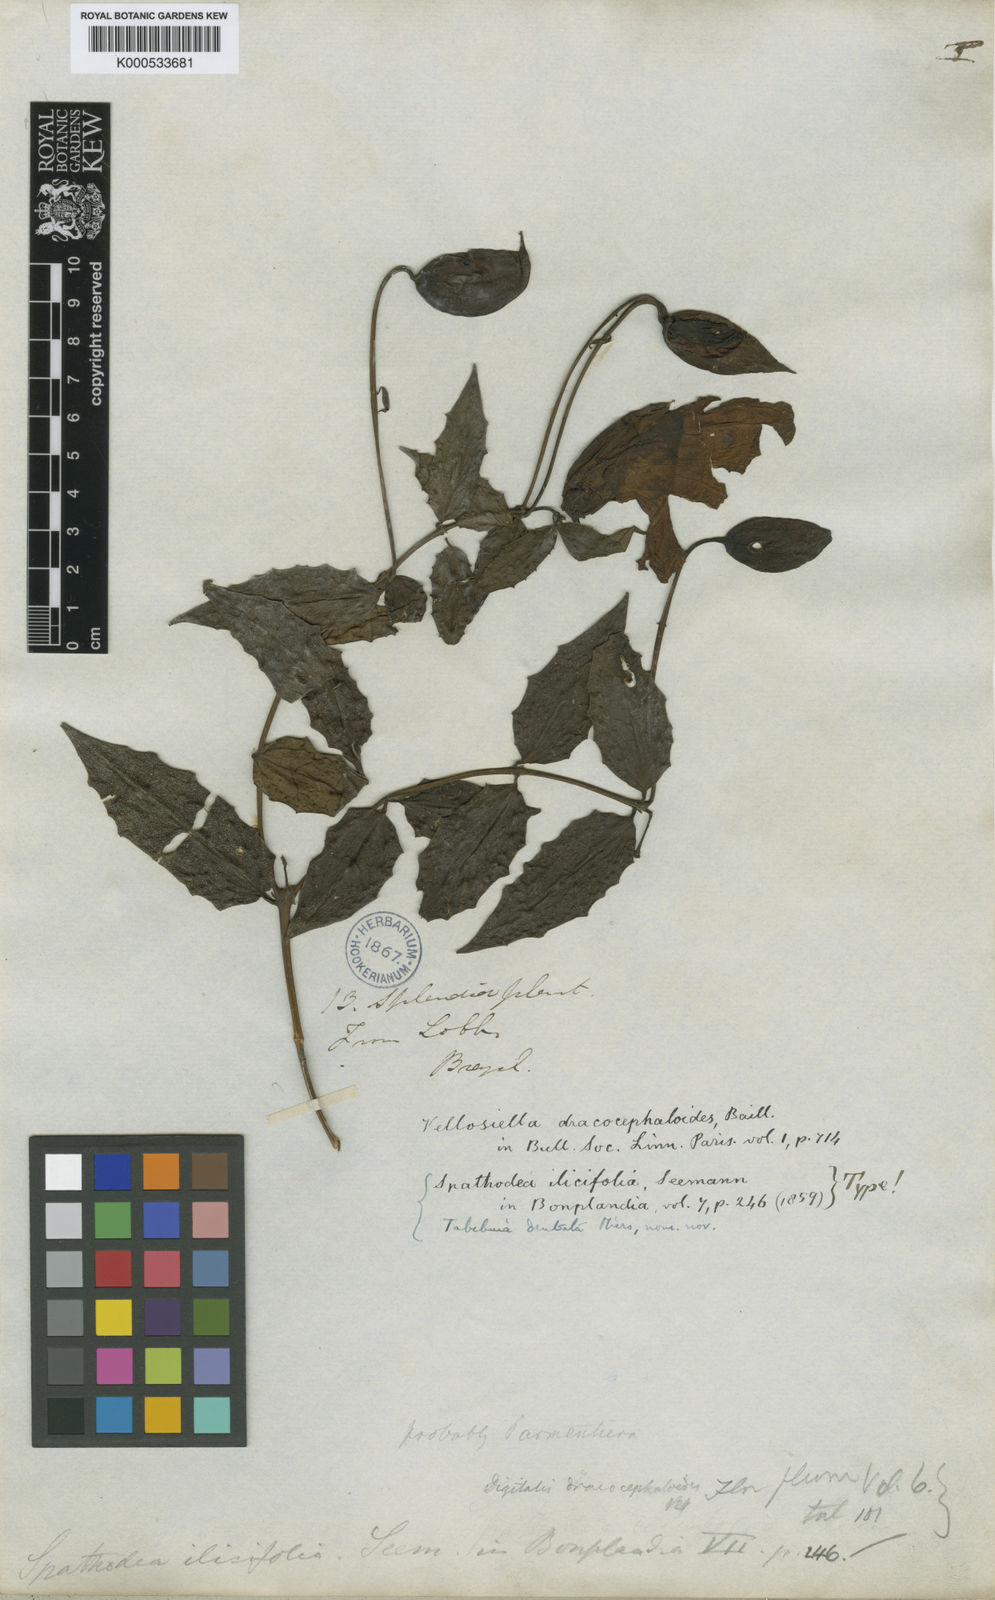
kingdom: Plantae
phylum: Tracheophyta
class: Magnoliopsida
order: Lamiales
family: Scrophulariaceae
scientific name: Scrophulariaceae
